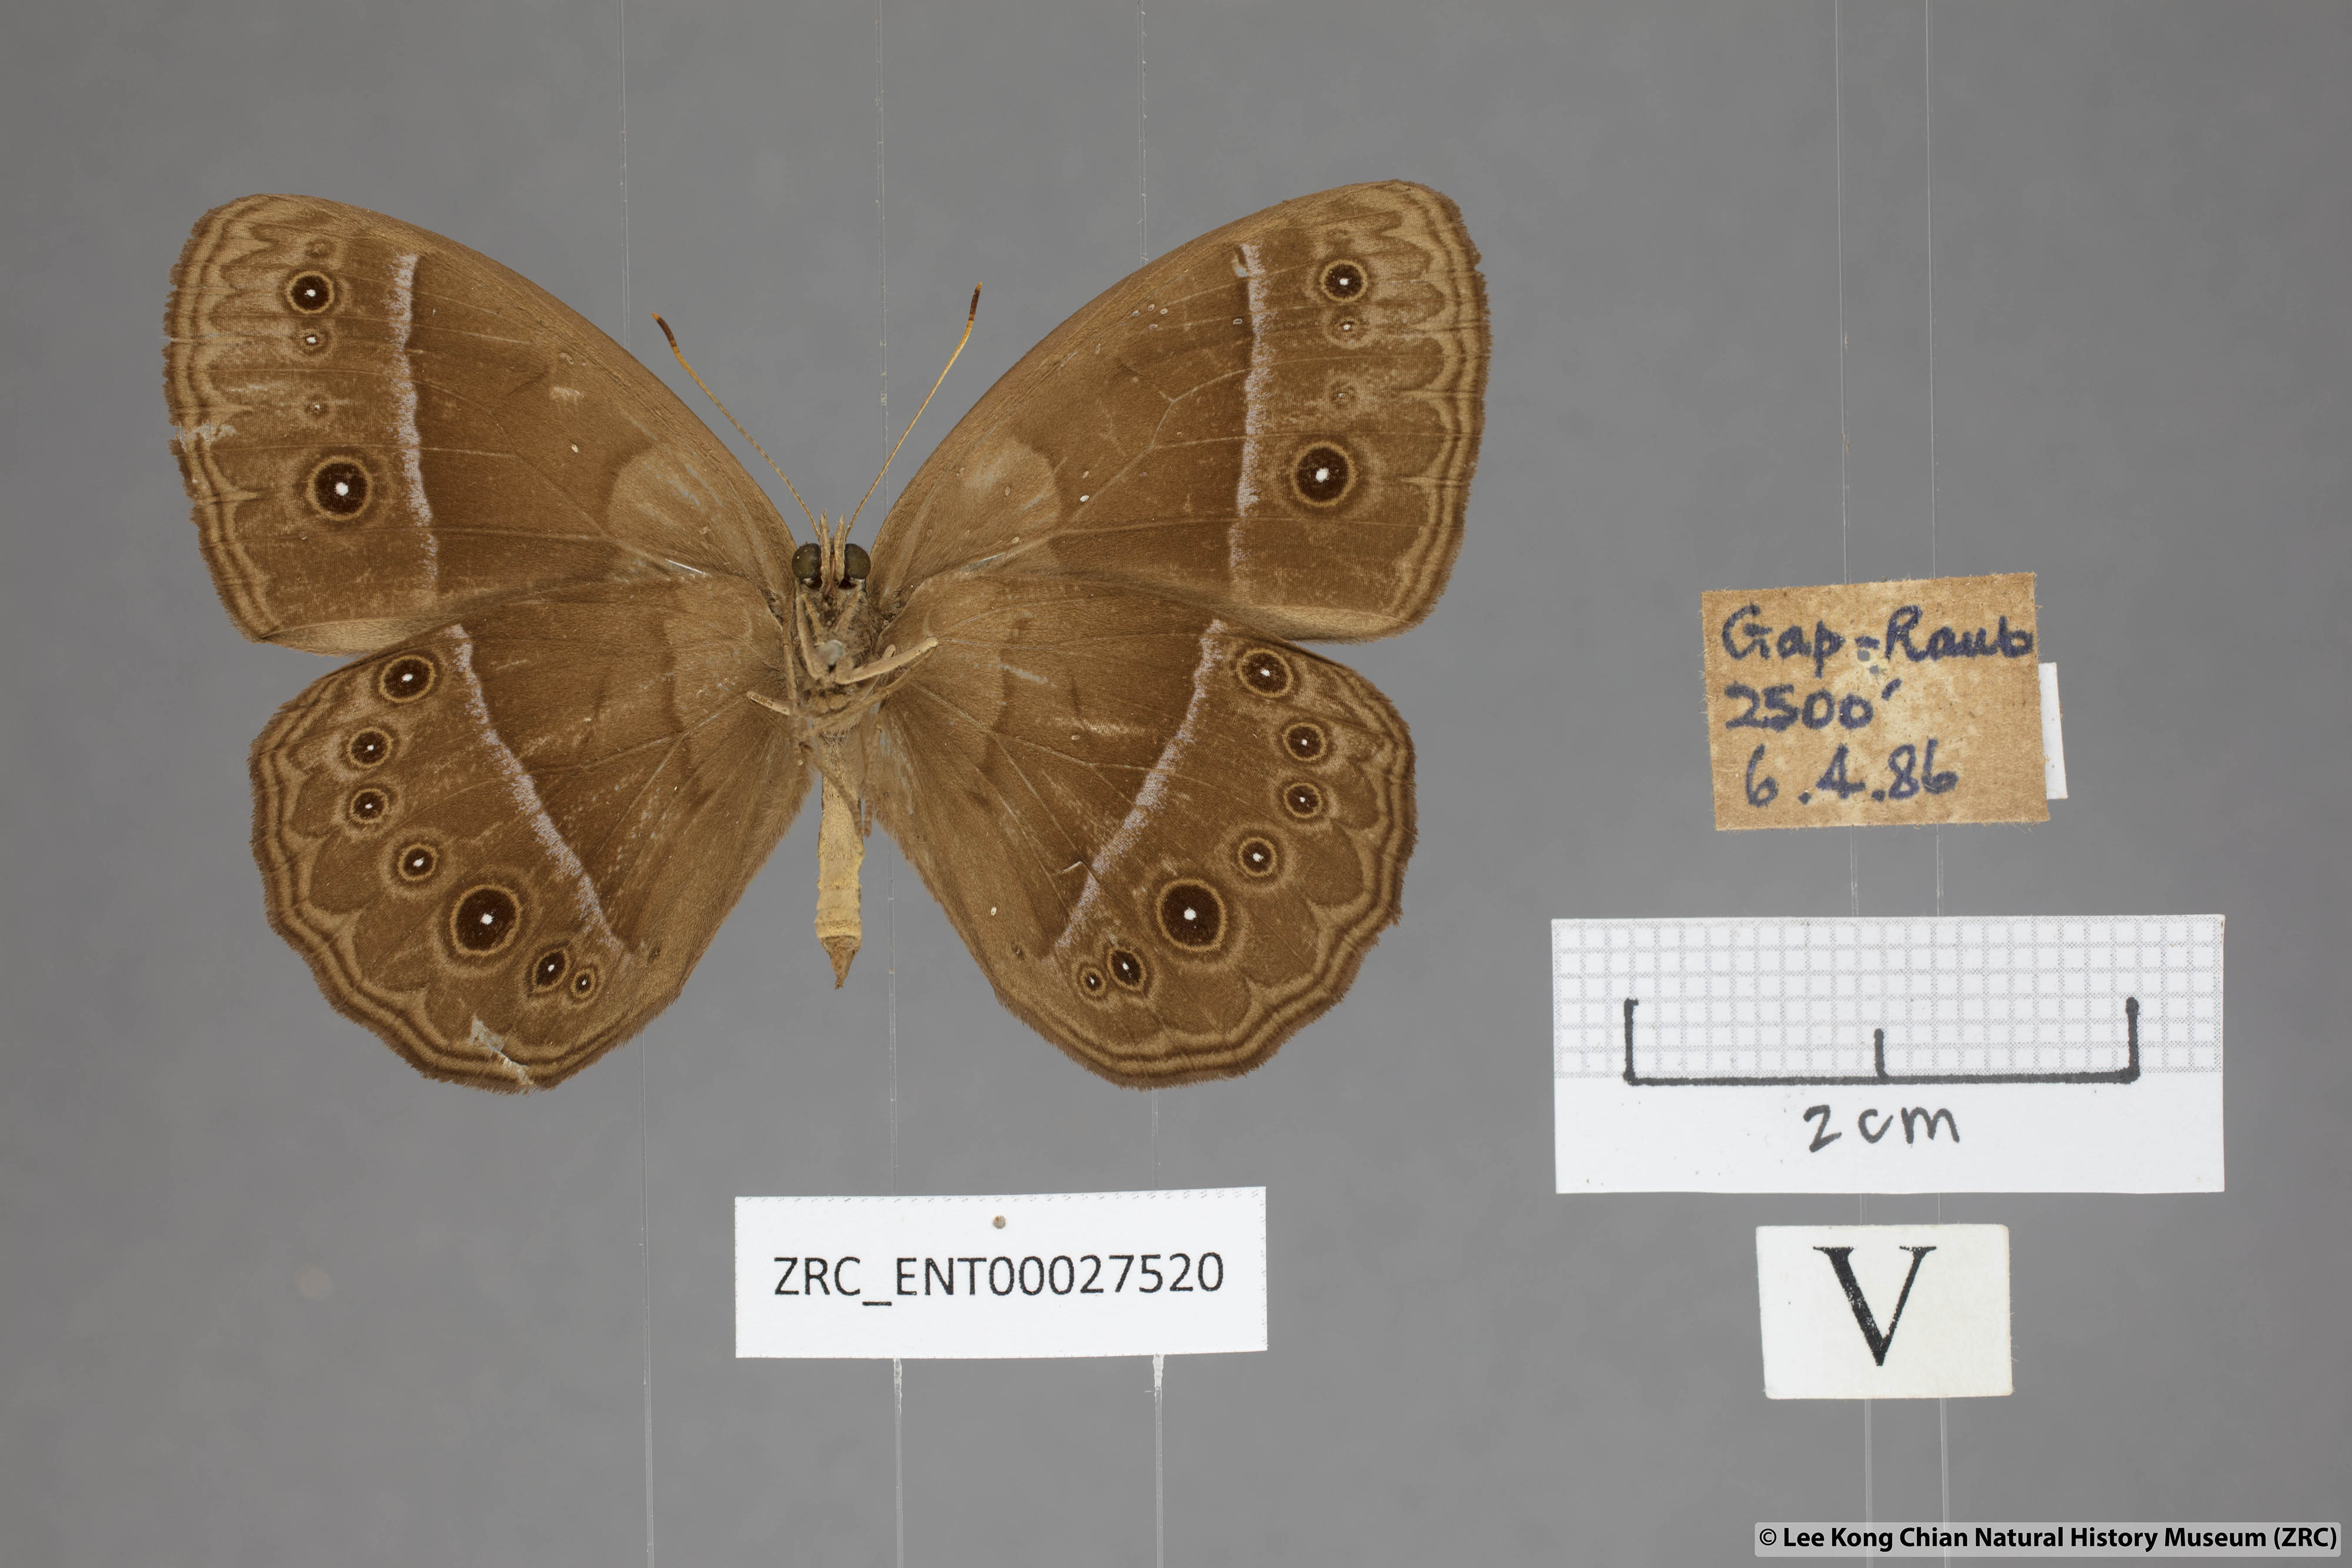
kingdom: Animalia
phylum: Arthropoda
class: Insecta
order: Lepidoptera
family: Nymphalidae
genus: Mycalesis
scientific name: Mycalesis oroatis
